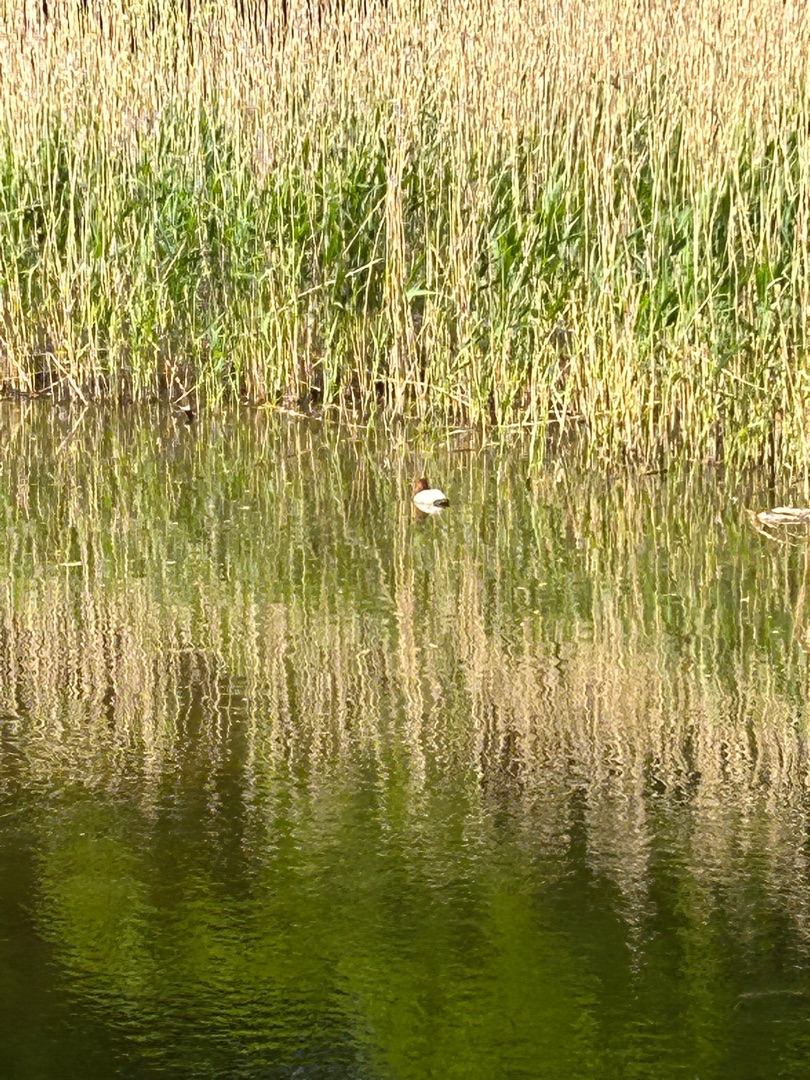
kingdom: Animalia
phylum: Chordata
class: Aves
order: Anseriformes
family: Anatidae
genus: Aythya
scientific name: Aythya ferina
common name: Taffeland
